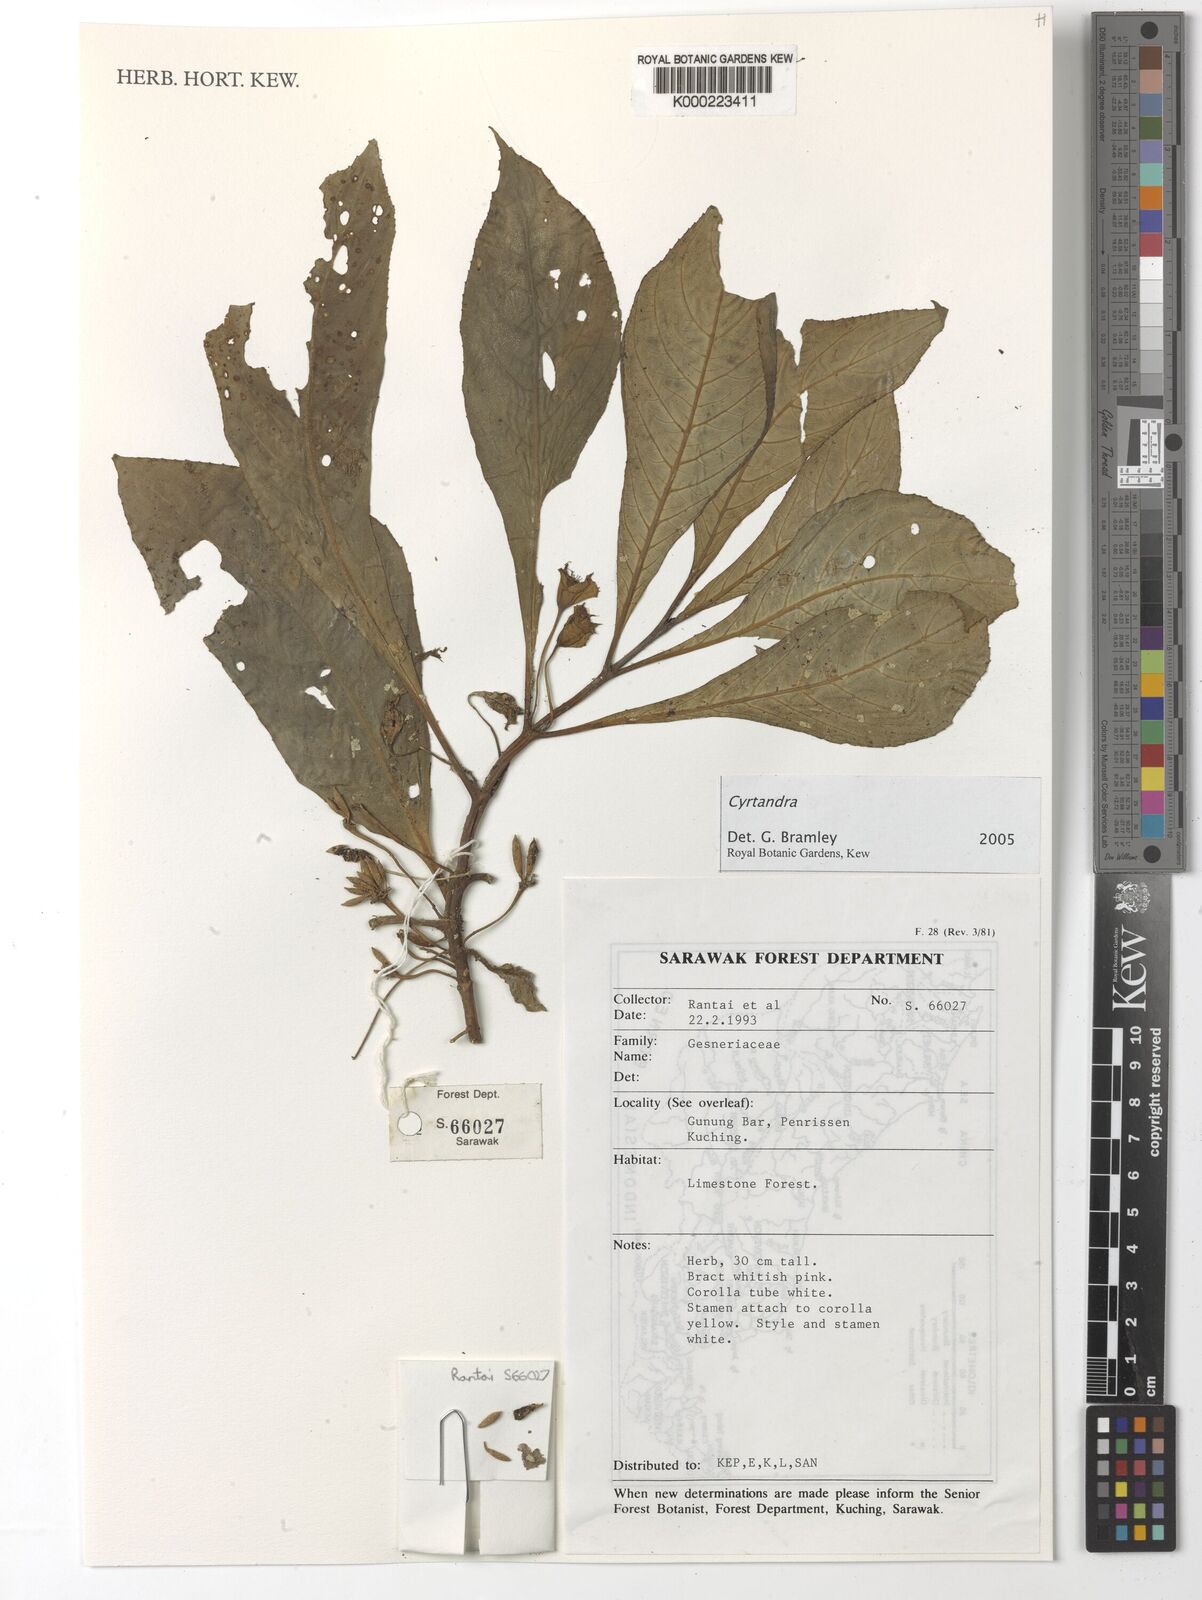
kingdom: Plantae
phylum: Tracheophyta
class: Magnoliopsida
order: Lamiales
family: Gesneriaceae
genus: Cyrtandra
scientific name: Cyrtandra
